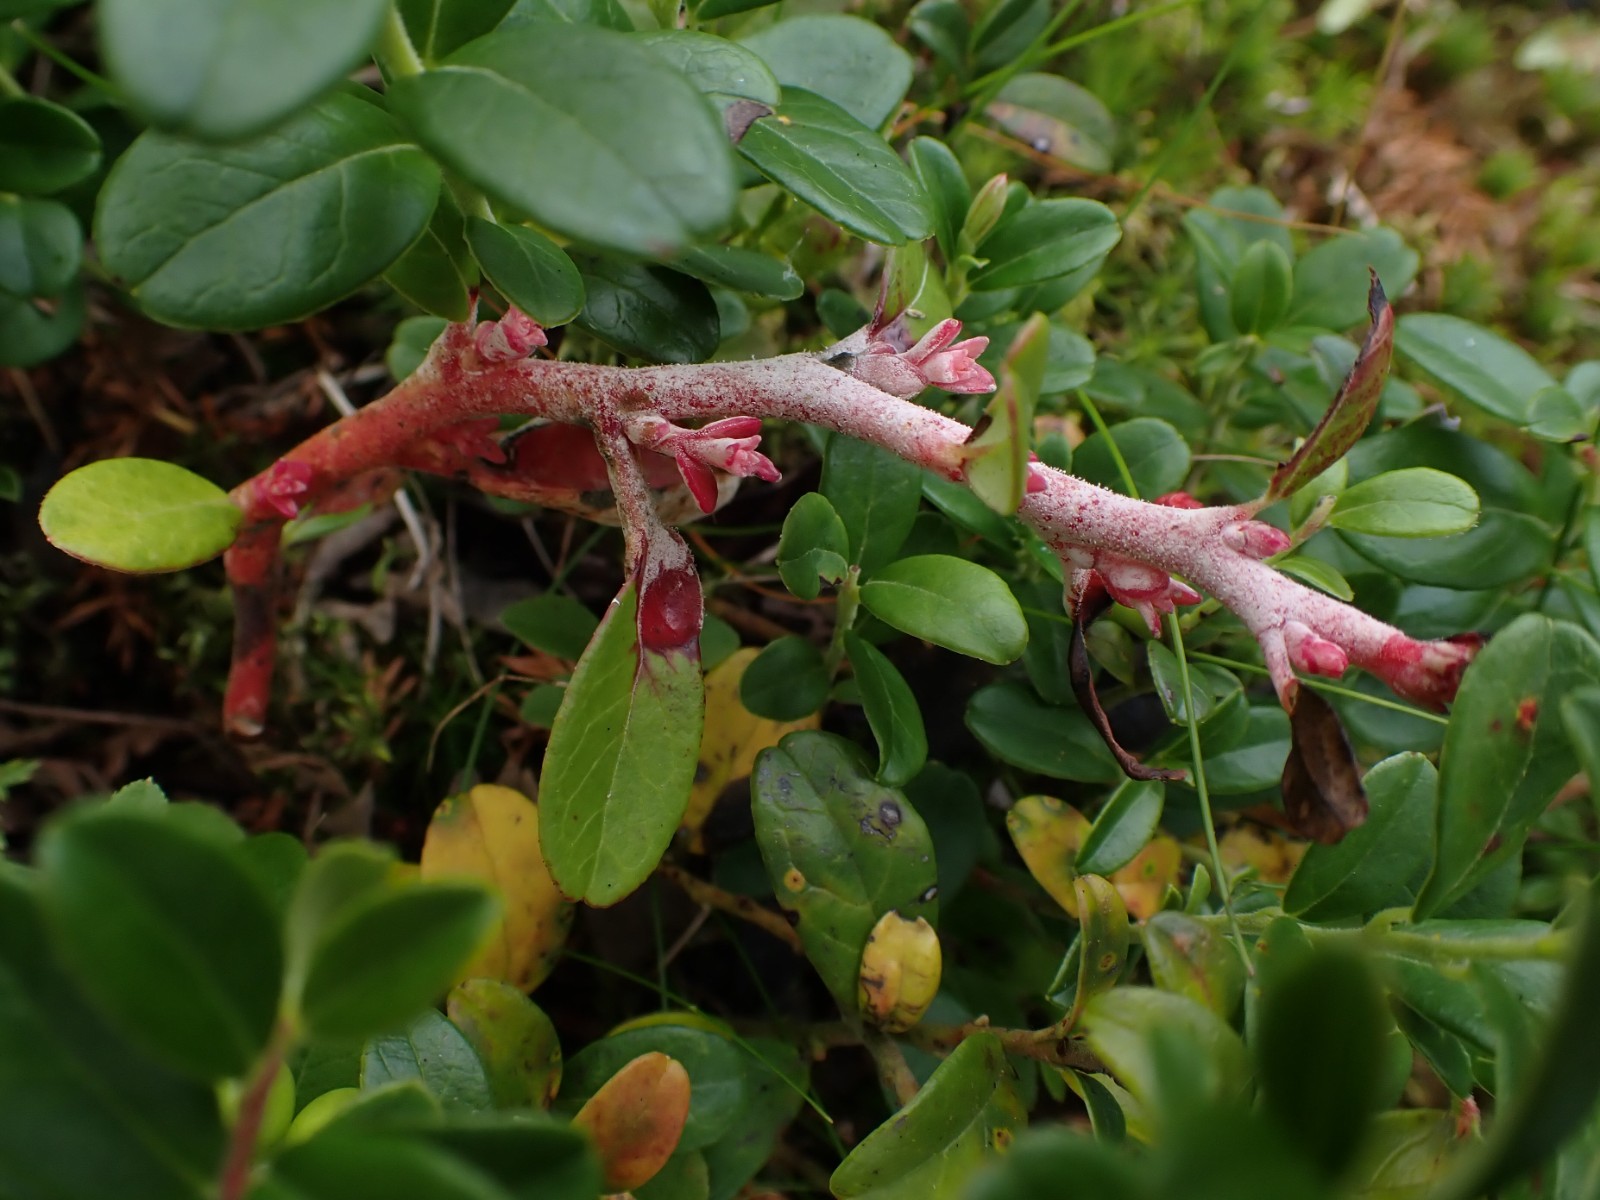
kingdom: Fungi
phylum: Basidiomycota
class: Exobasidiomycetes
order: Exobasidiales
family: Exobasidiaceae
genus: Exobasidium
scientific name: Exobasidium juelianum
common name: tyttebærkvist-bøllesvamp
